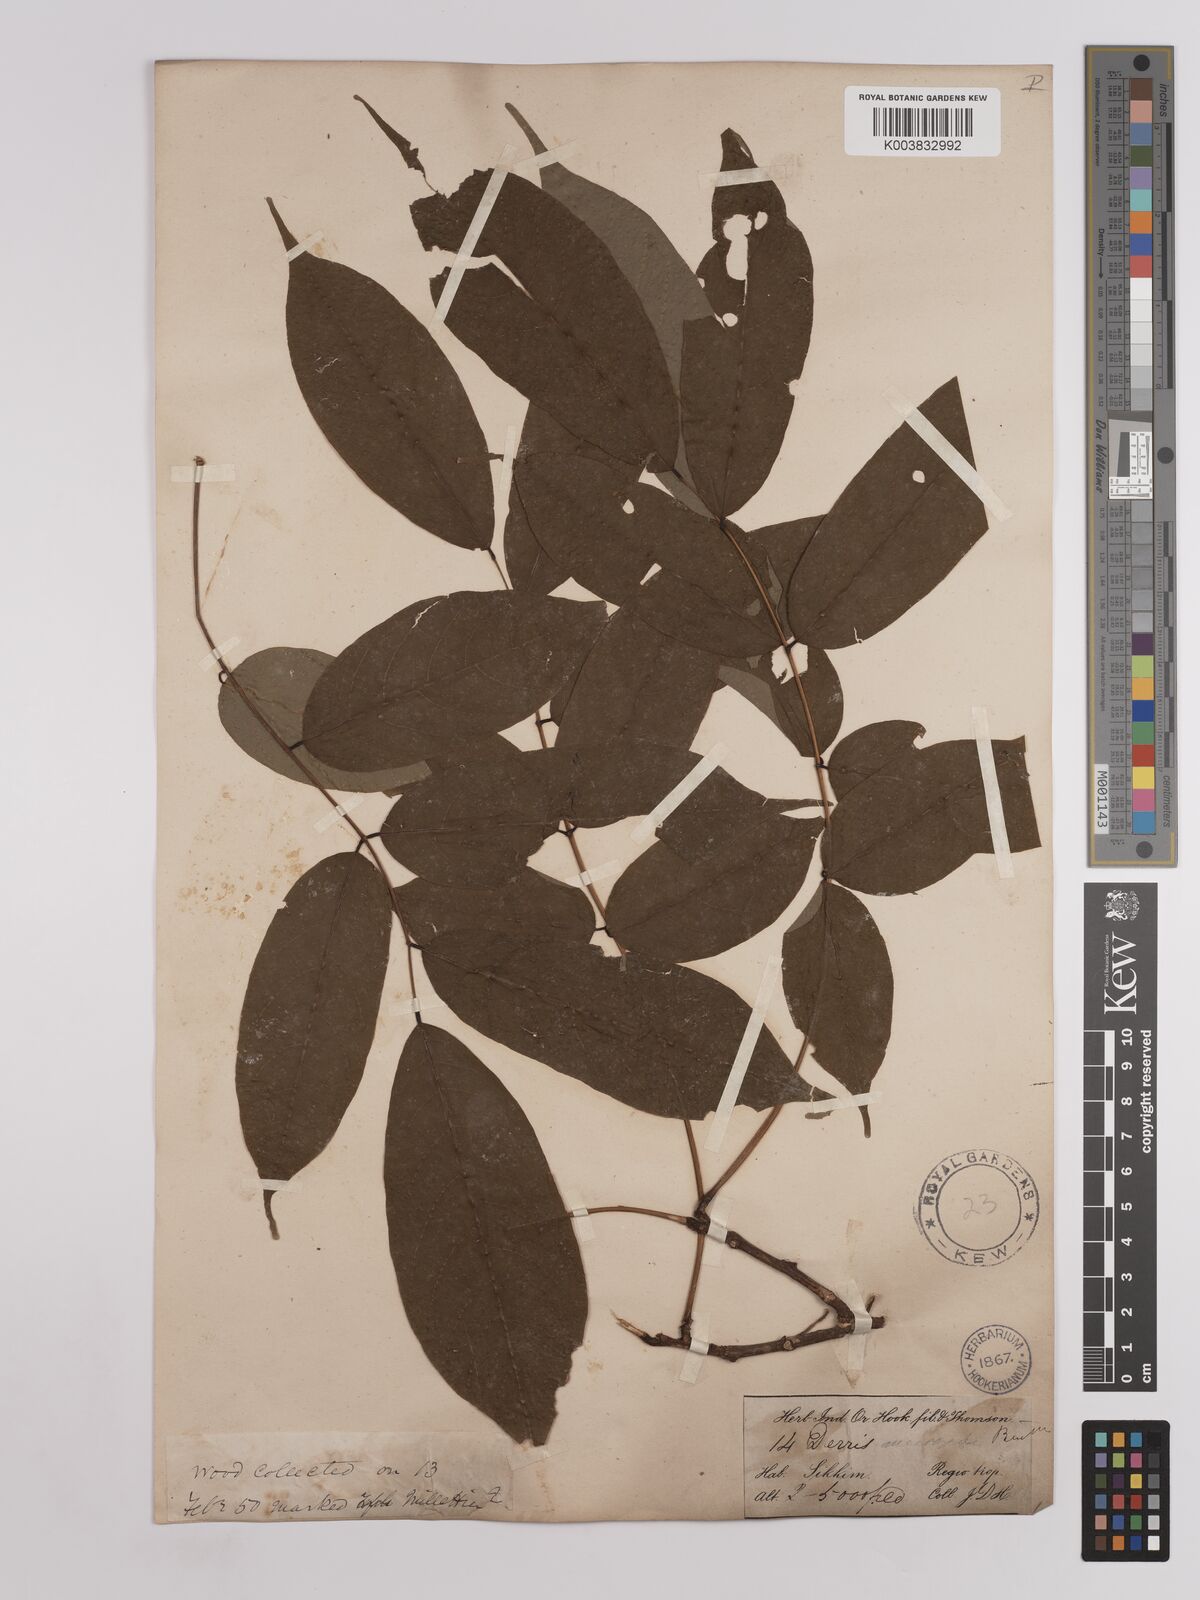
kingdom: Plantae
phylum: Tracheophyta
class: Magnoliopsida
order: Fabales
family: Fabaceae
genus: Derris
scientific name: Derris monticola
